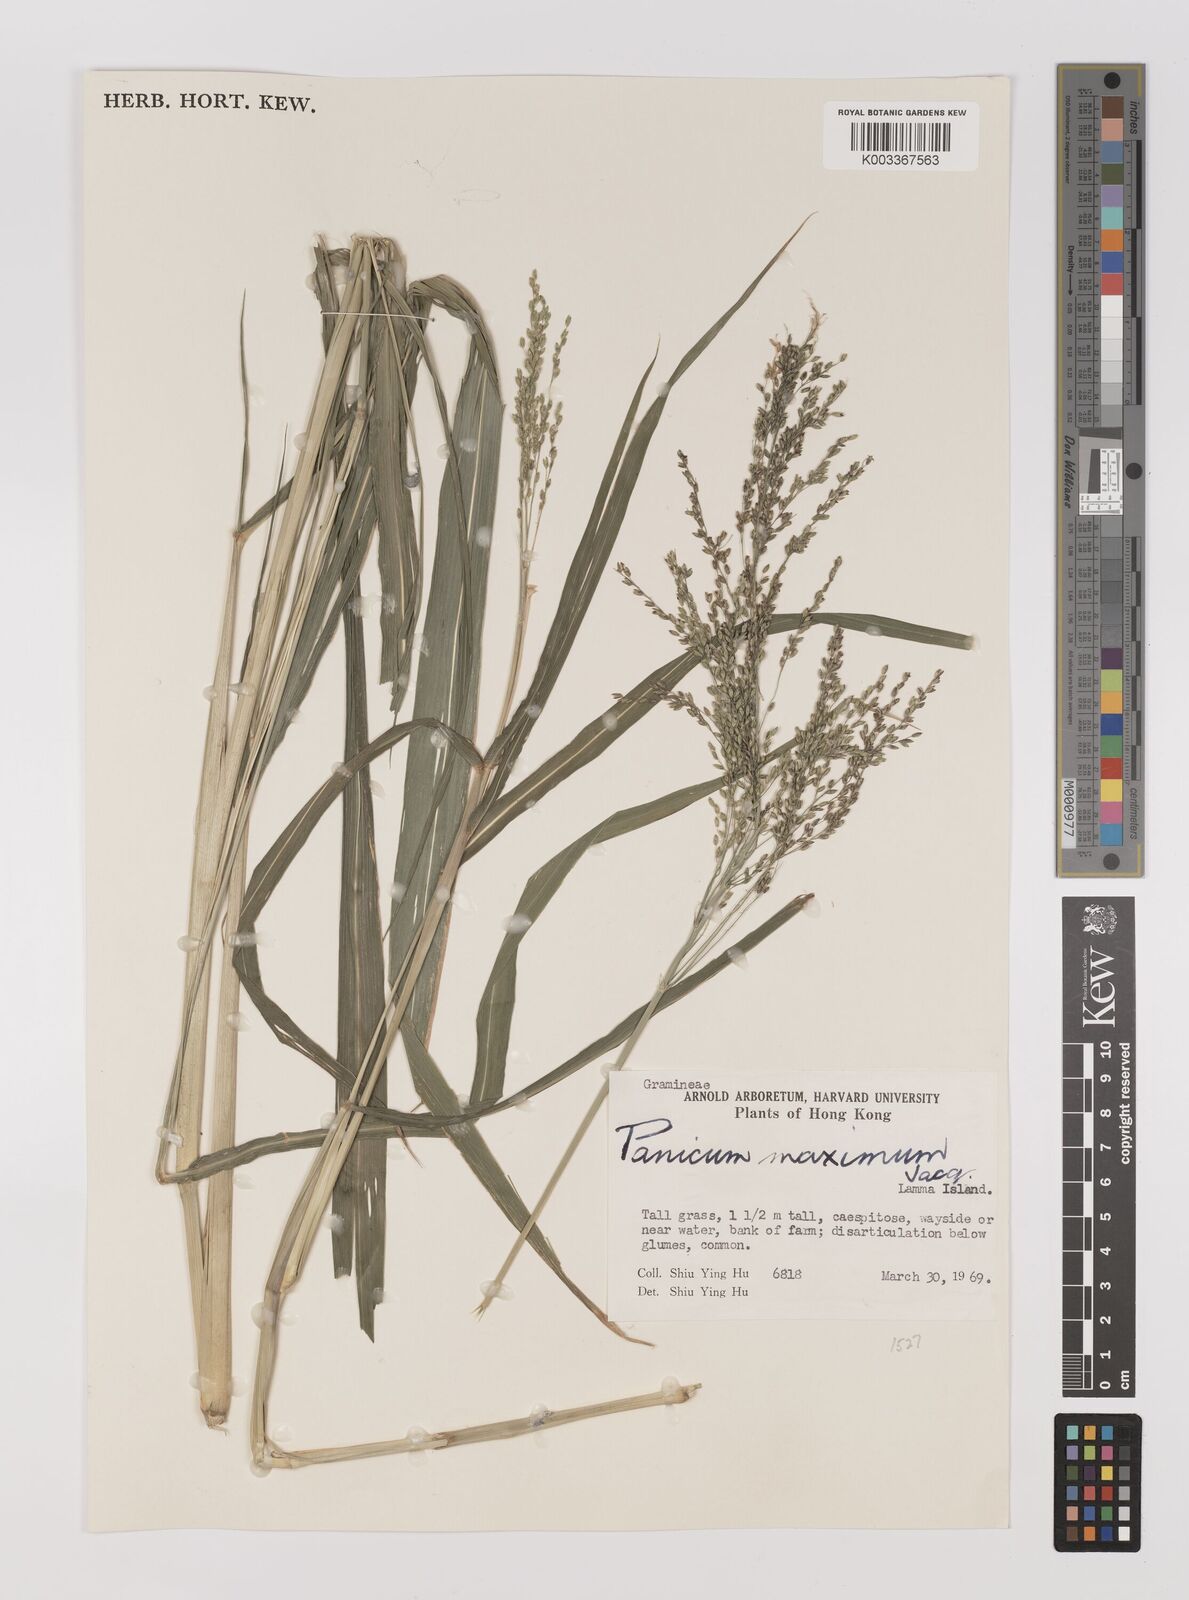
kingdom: Plantae
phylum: Tracheophyta
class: Liliopsida
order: Poales
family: Poaceae
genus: Megathyrsus
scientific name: Megathyrsus maximus
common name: Guineagrass
